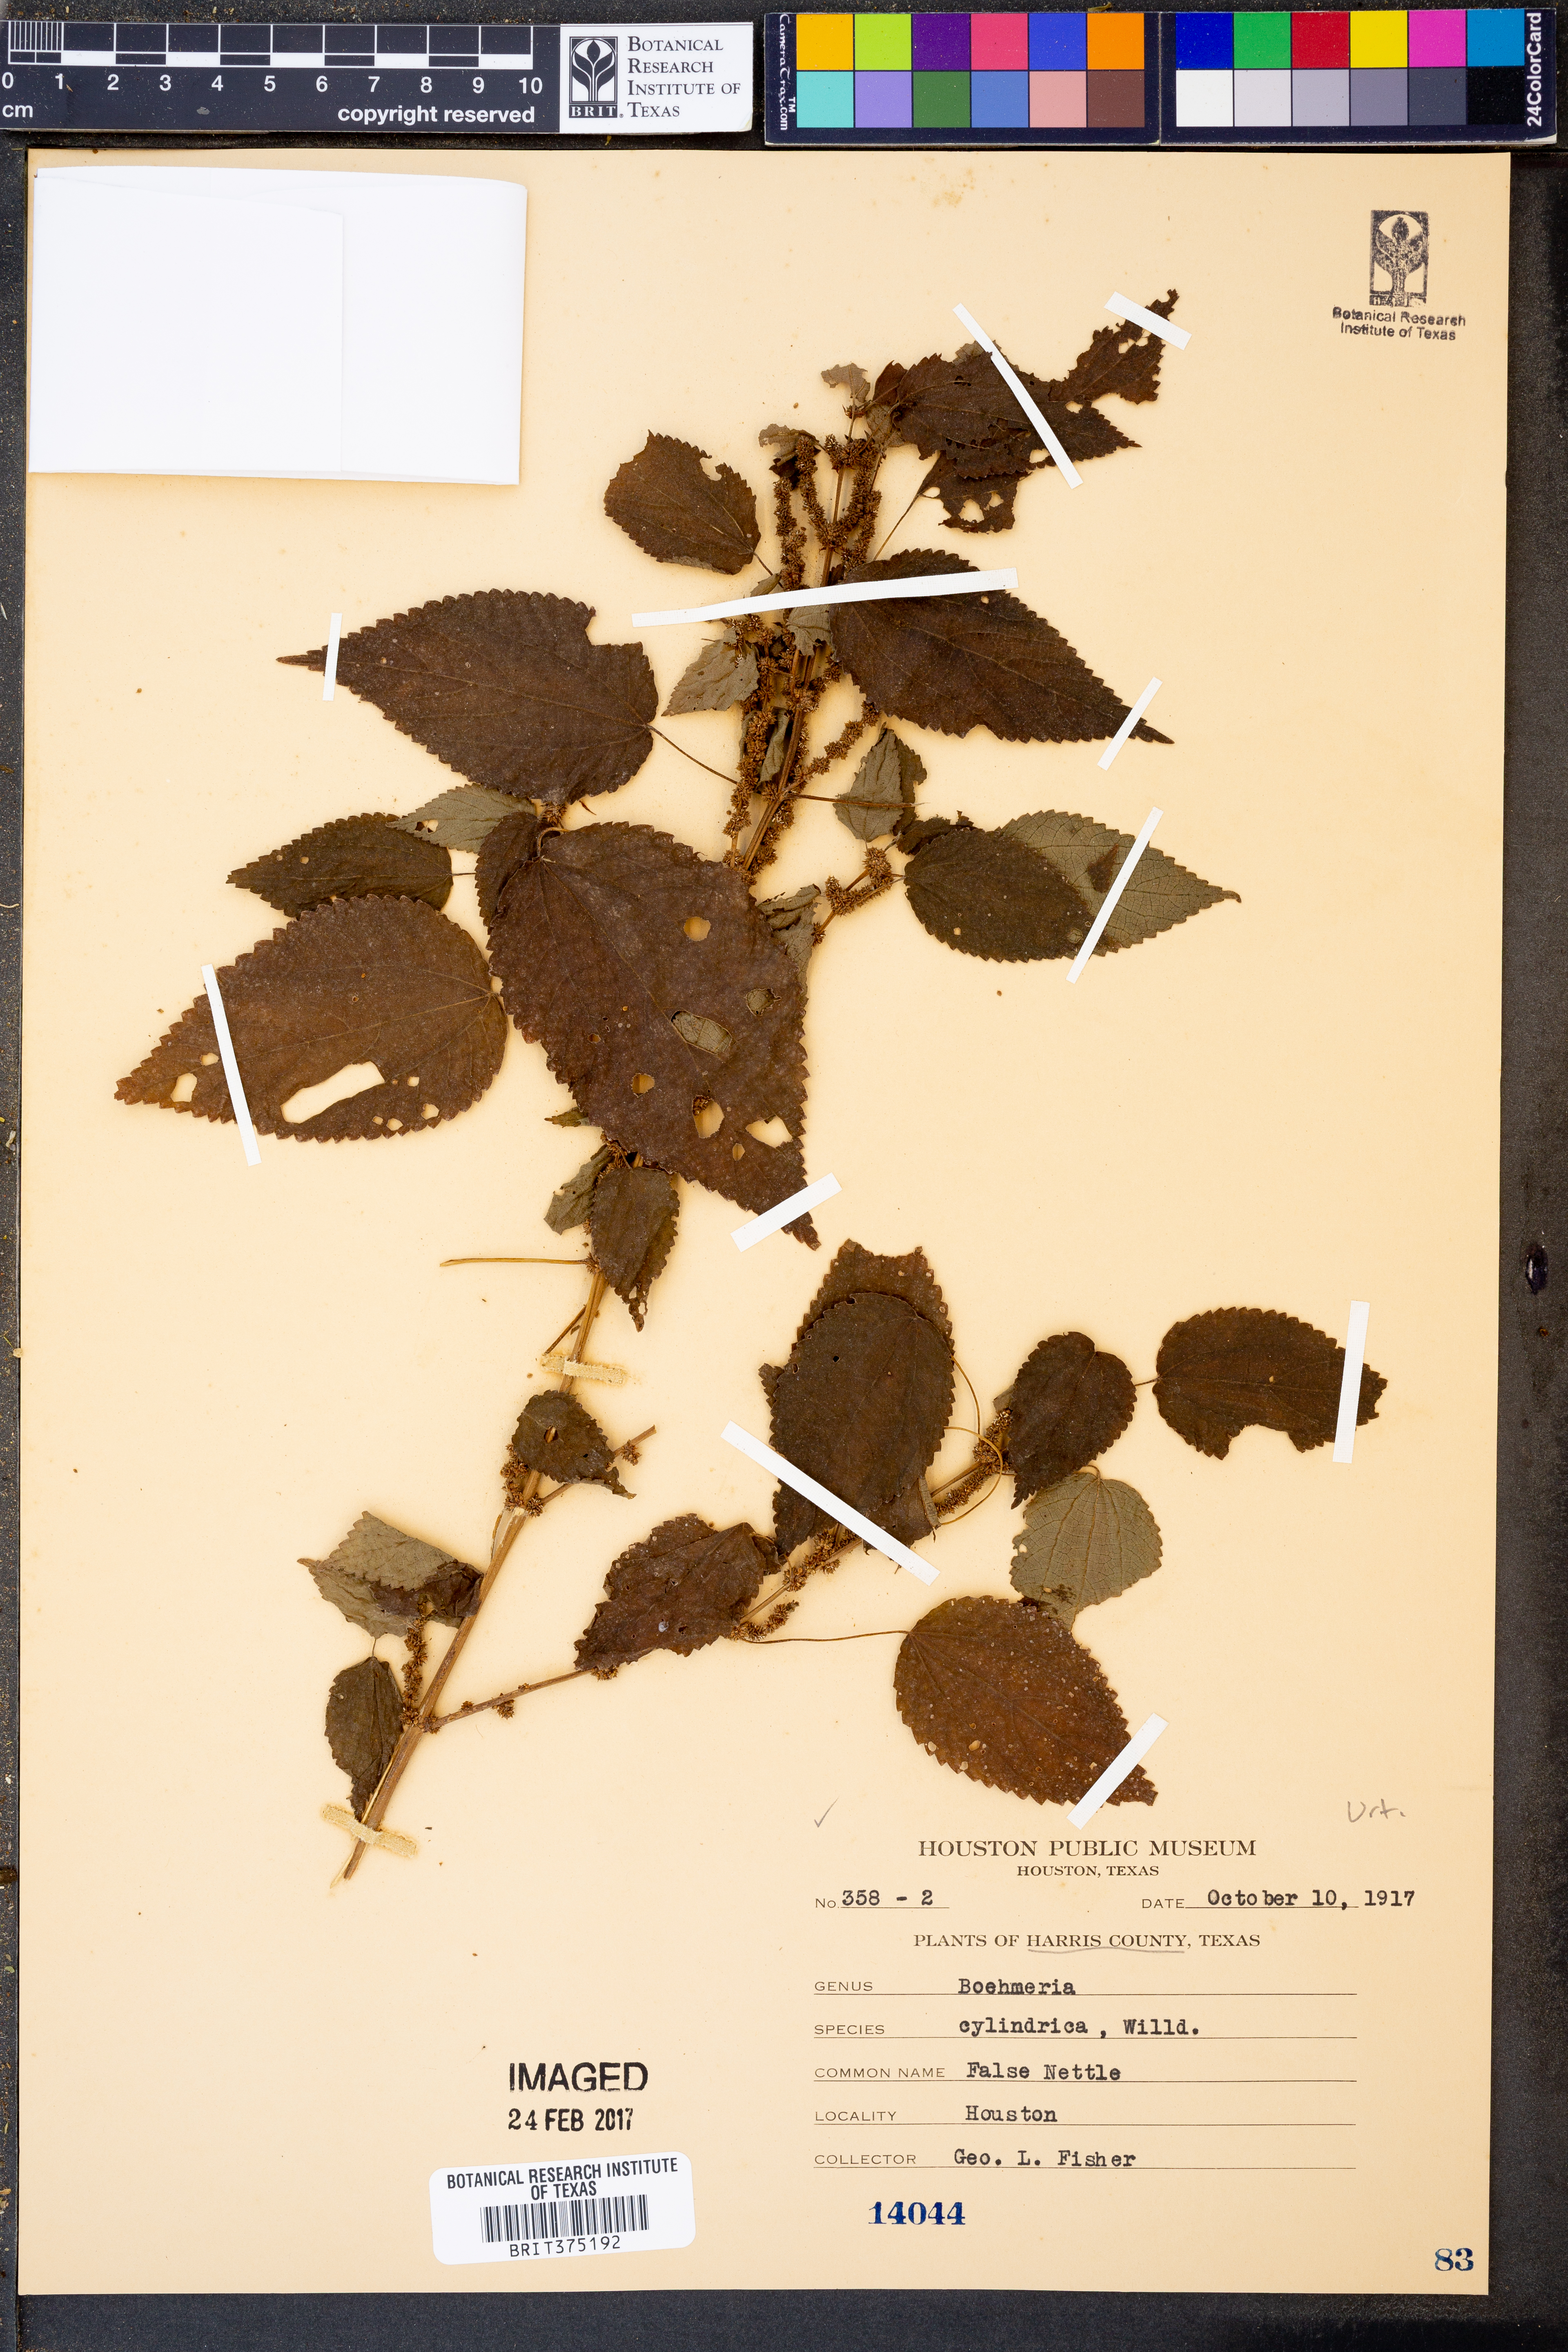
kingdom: Plantae
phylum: Tracheophyta
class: Magnoliopsida
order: Rosales
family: Urticaceae
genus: Boehmeria
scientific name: Boehmeria cylindrica
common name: Bog-hemp
